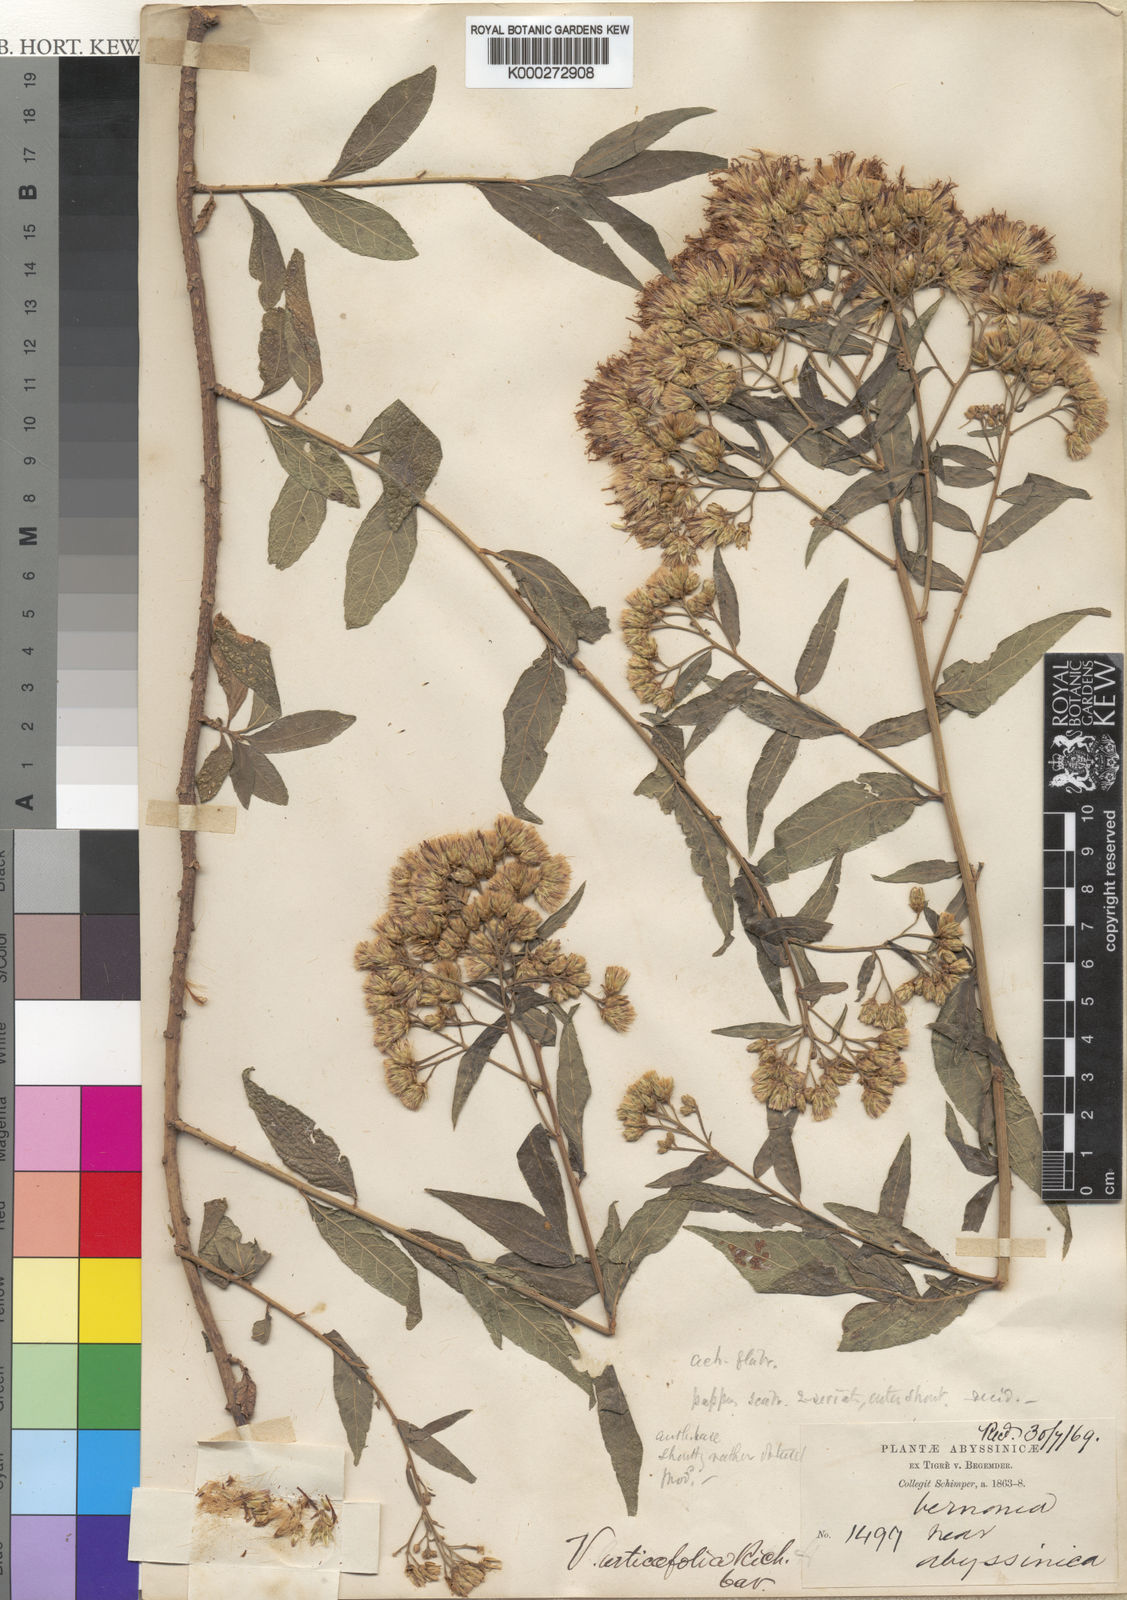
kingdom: Plantae
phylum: Tracheophyta
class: Magnoliopsida
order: Asterales
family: Asteraceae
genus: Gymnanthemum
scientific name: Gymnanthemum urticifolium
